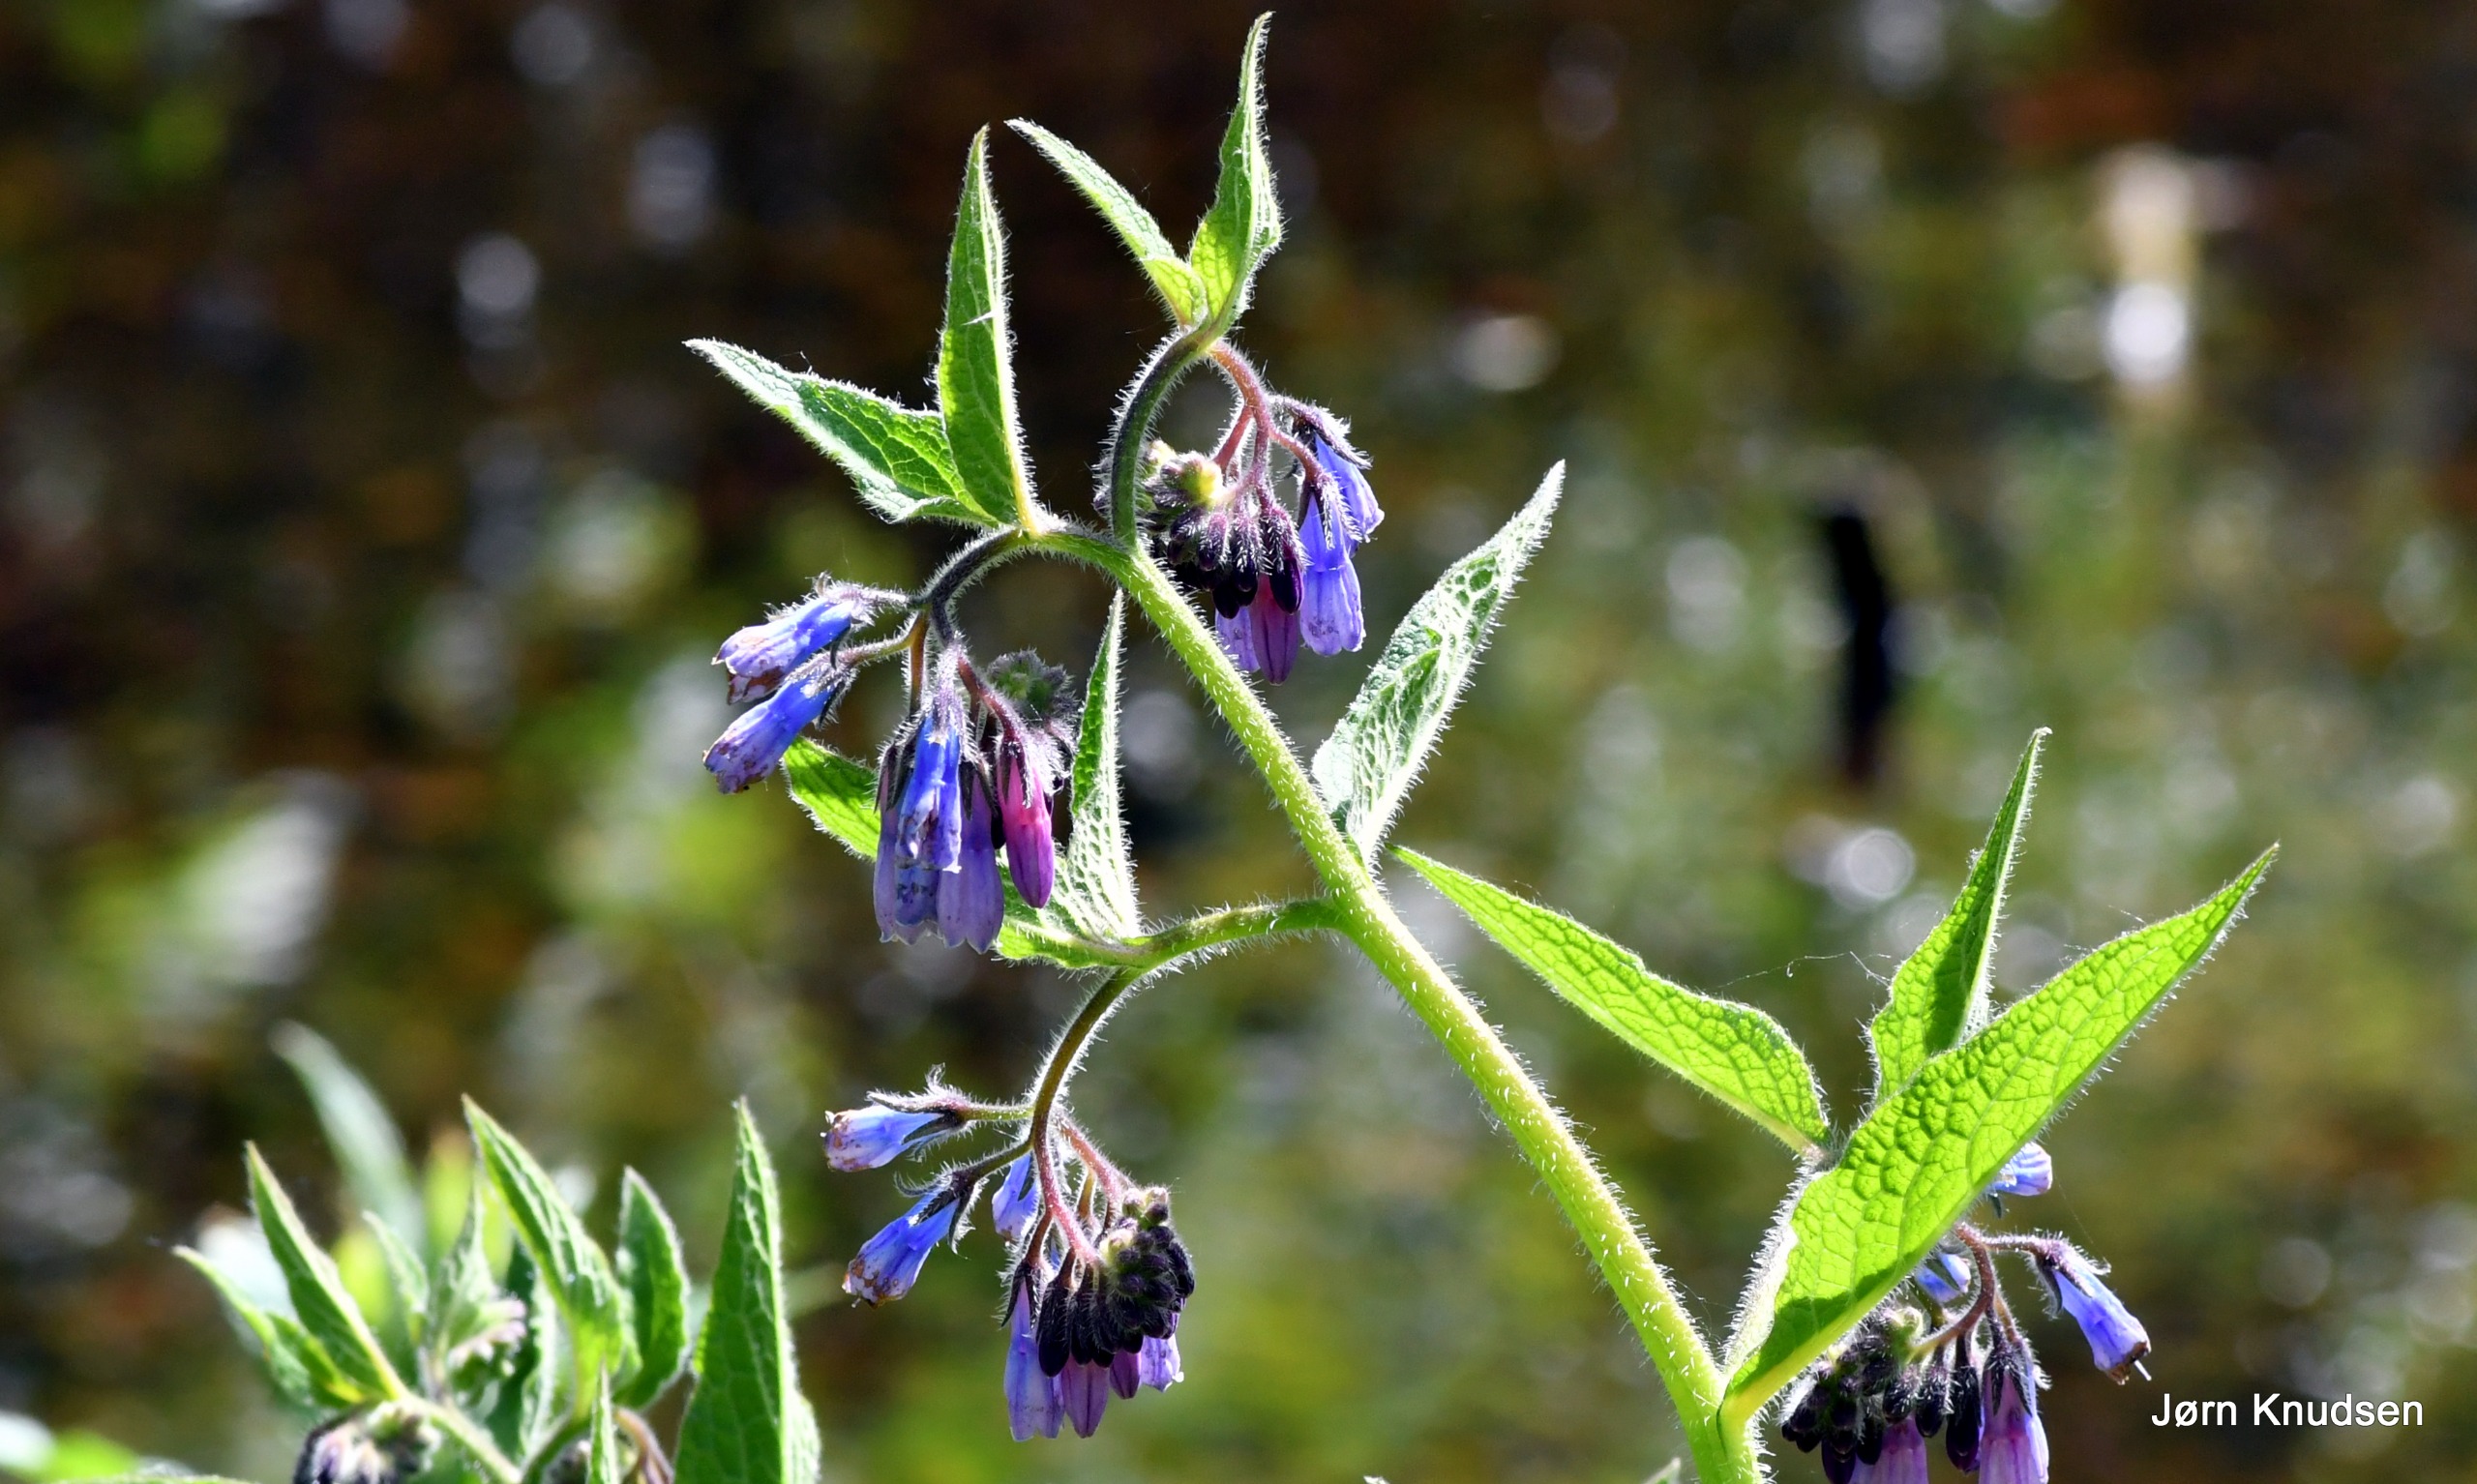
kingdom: Plantae
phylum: Tracheophyta
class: Magnoliopsida
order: Boraginales
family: Boraginaceae
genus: Symphytum
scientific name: Symphytum uplandicum
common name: Foder-kulsukker
